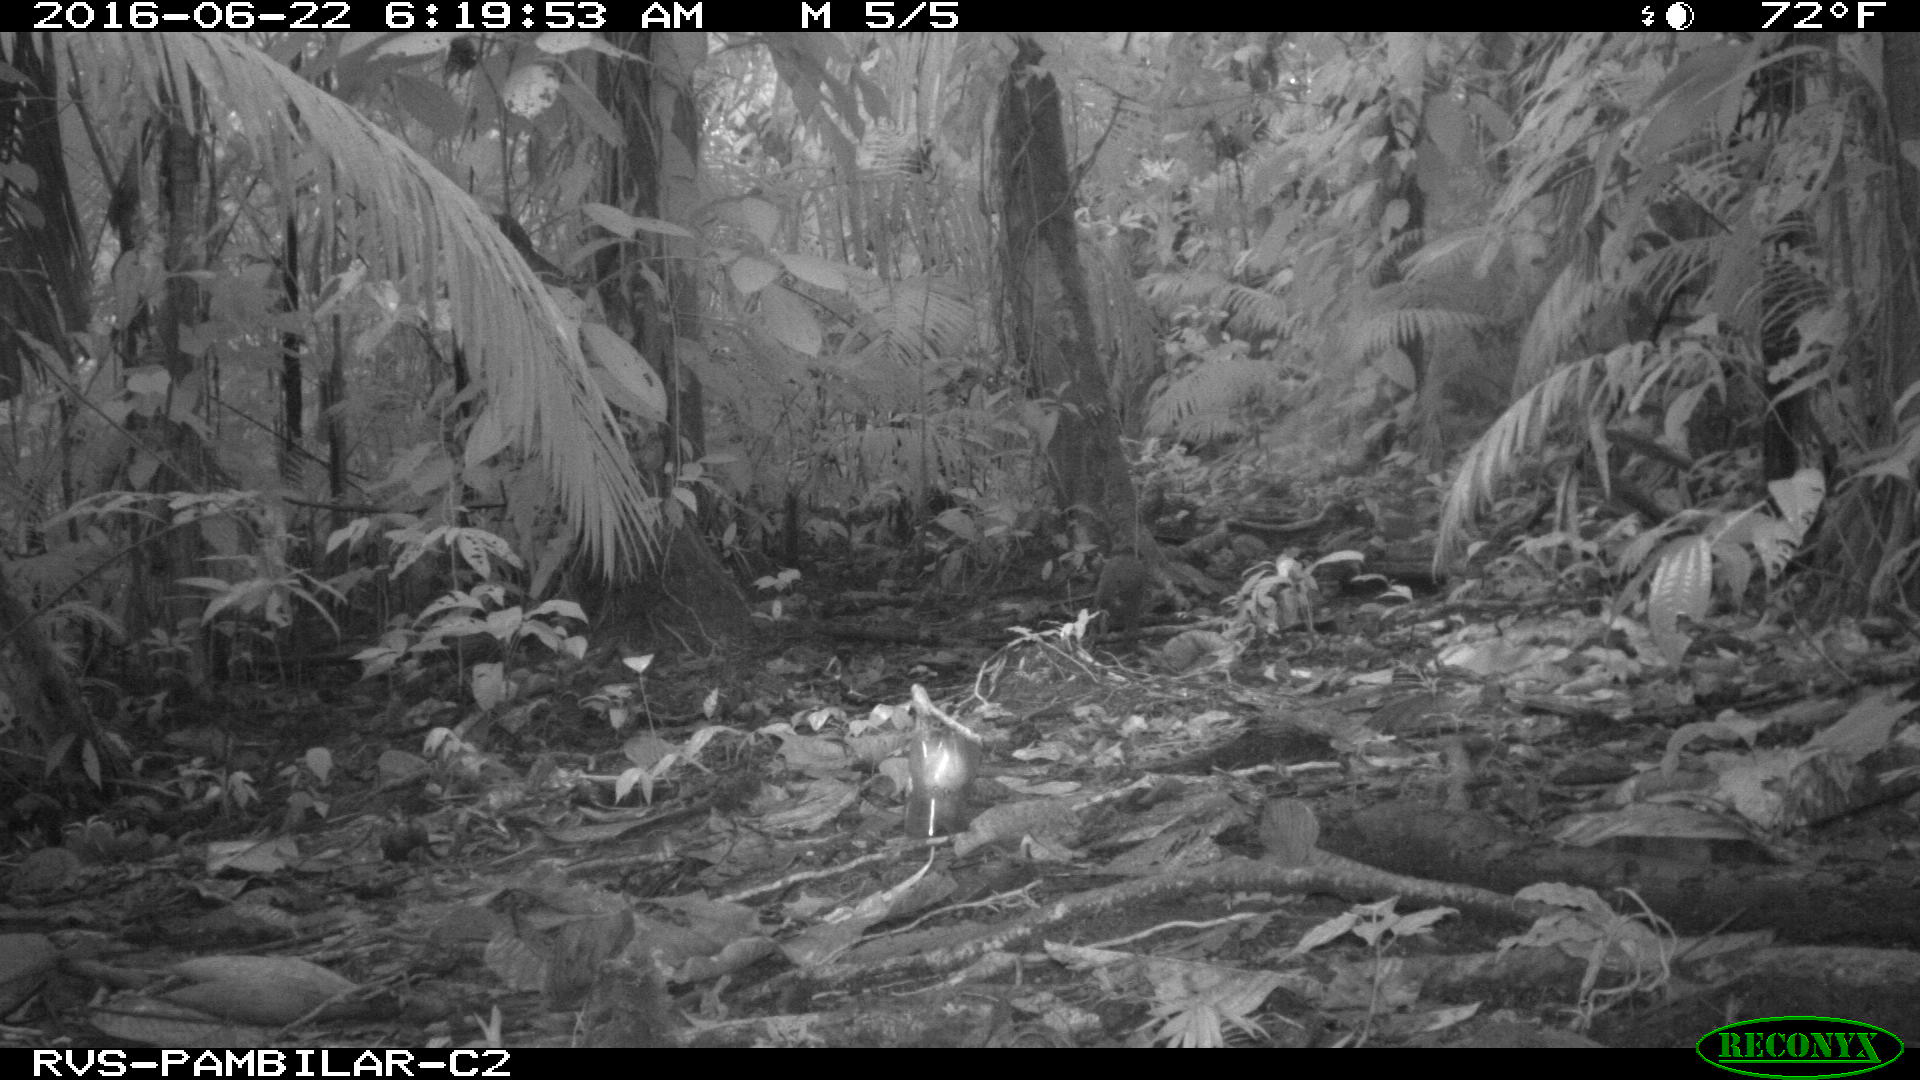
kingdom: Animalia
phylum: Chordata
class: Mammalia
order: Rodentia
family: Dasyproctidae
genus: Dasyprocta
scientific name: Dasyprocta punctata
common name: Central american agouti
